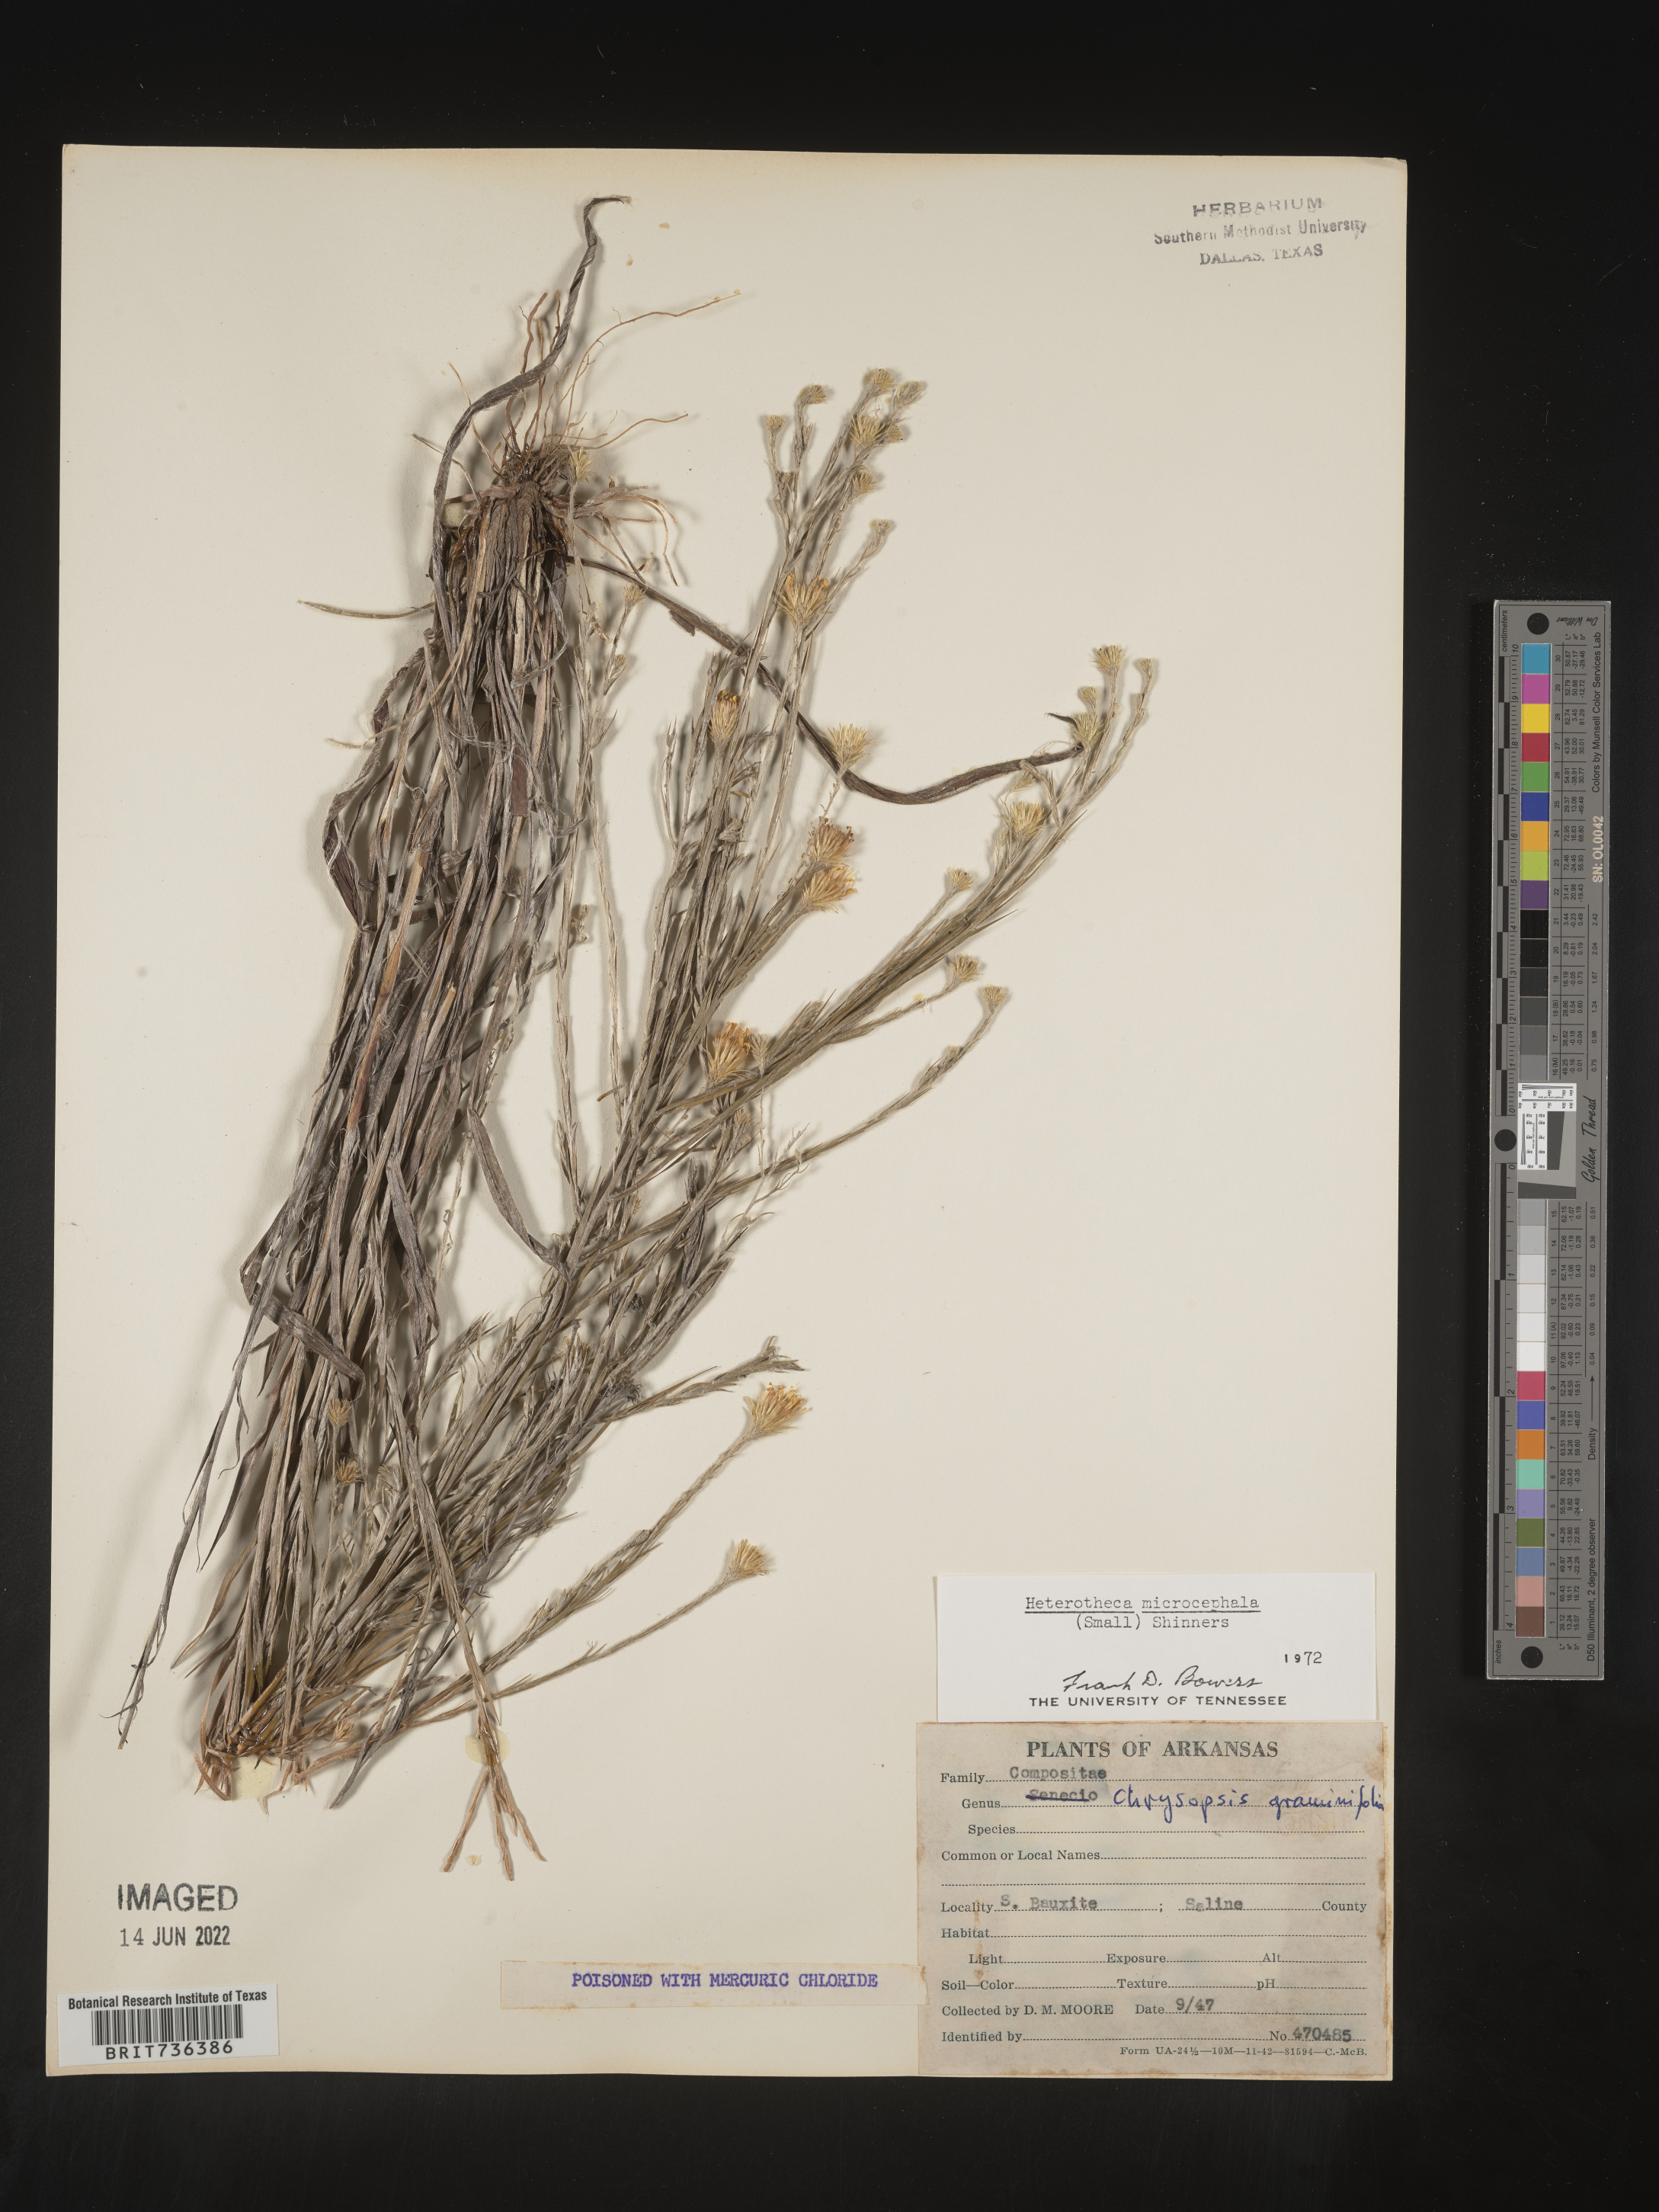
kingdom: Plantae
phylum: Tracheophyta
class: Magnoliopsida
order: Asterales
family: Asteraceae
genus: Pityopsis
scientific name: Pityopsis tenuifolia
